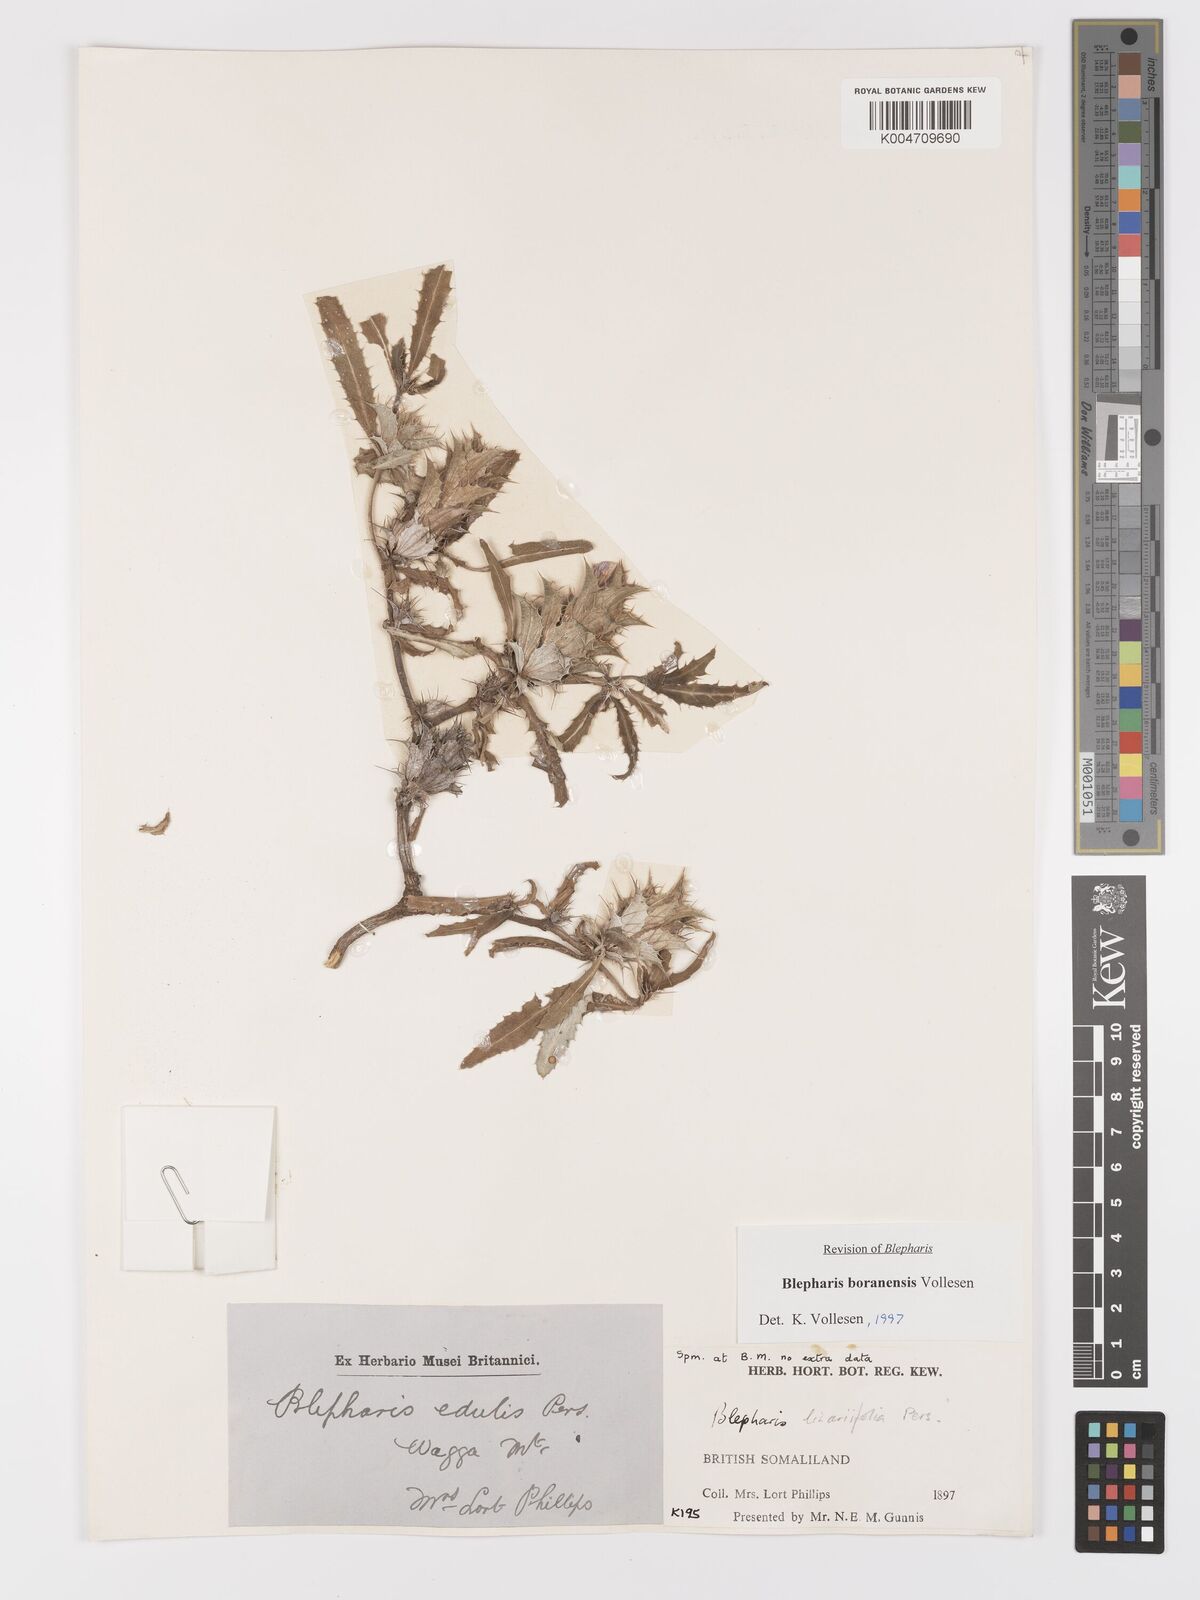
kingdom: Plantae
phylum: Tracheophyta
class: Magnoliopsida
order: Lamiales
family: Acanthaceae
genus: Blepharis
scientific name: Blepharis boranensis
